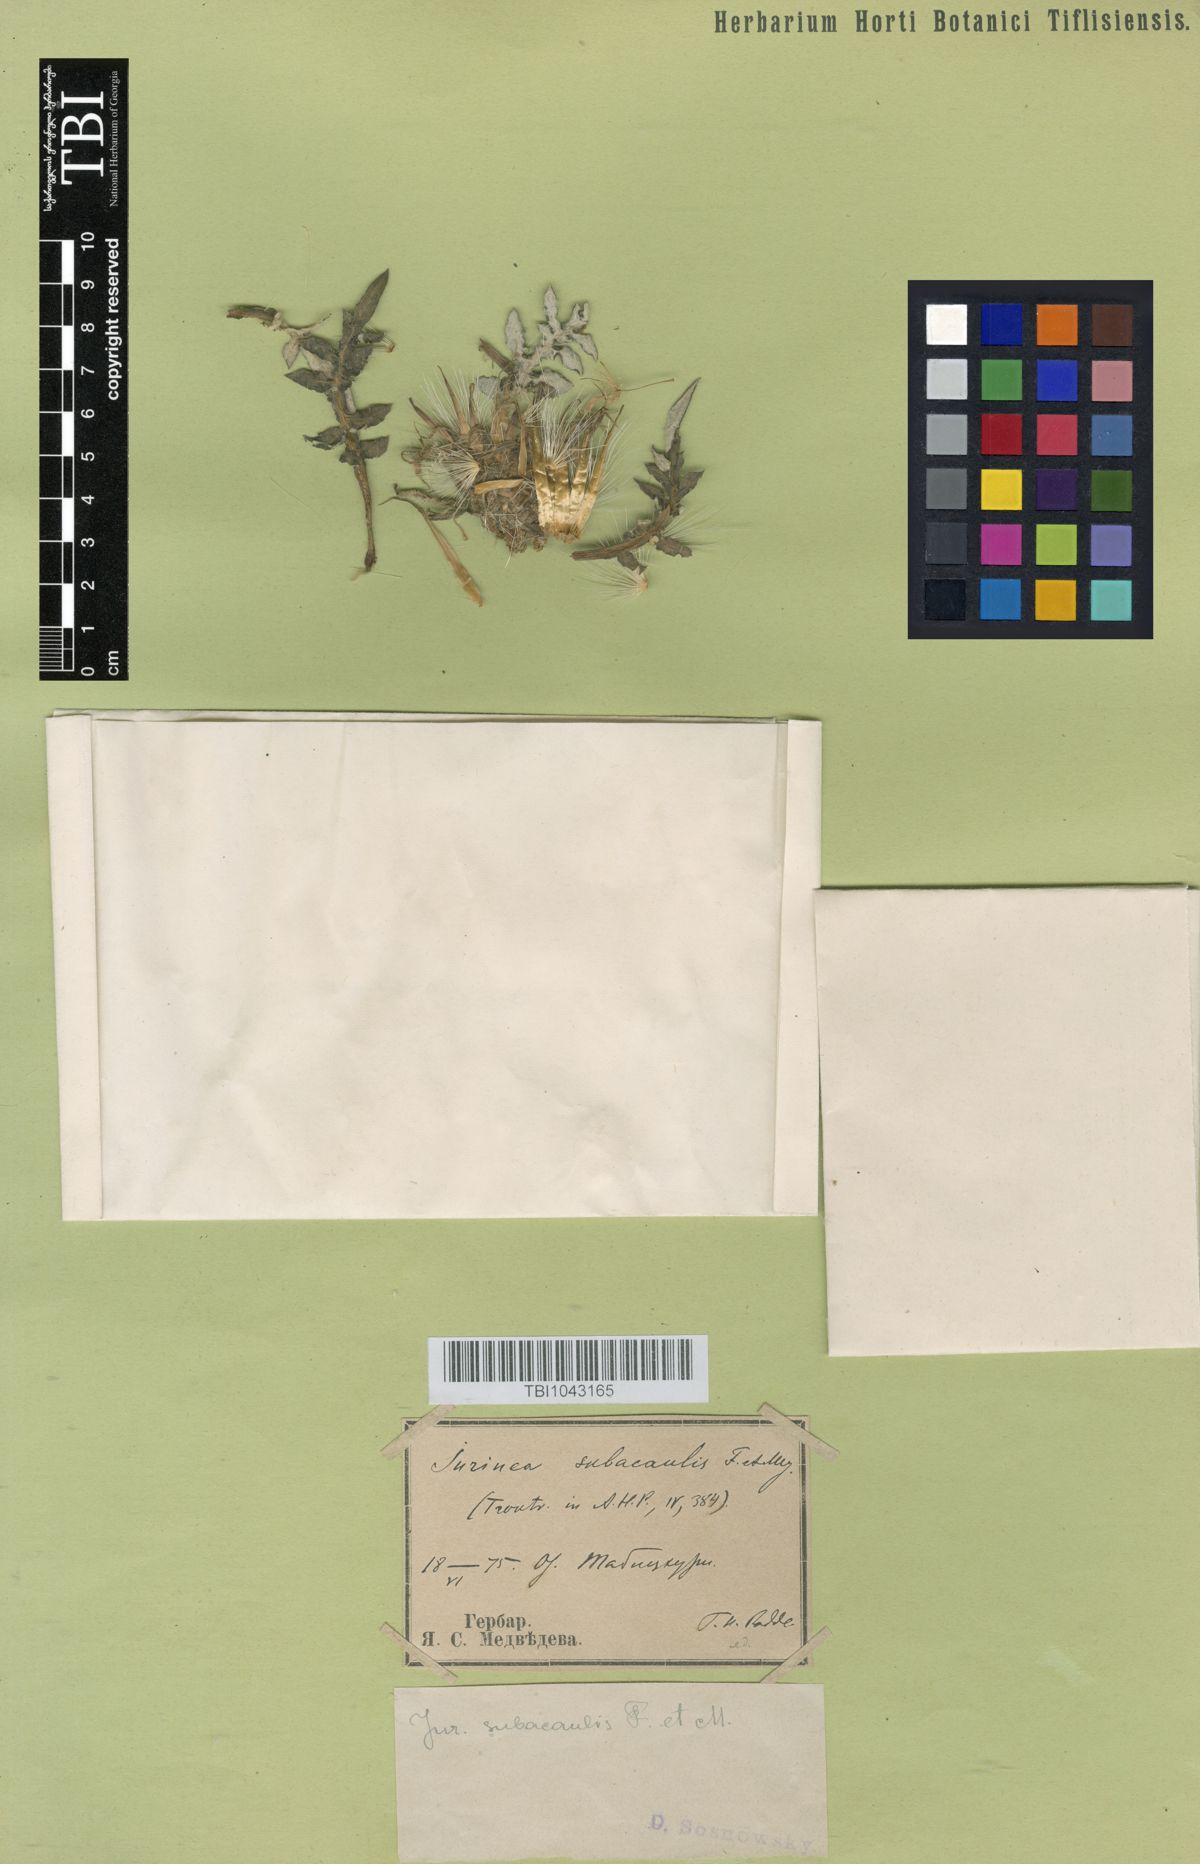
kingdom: Plantae
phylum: Tracheophyta
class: Magnoliopsida
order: Asterales
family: Asteraceae
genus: Jurinea
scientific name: Jurinea moschus
